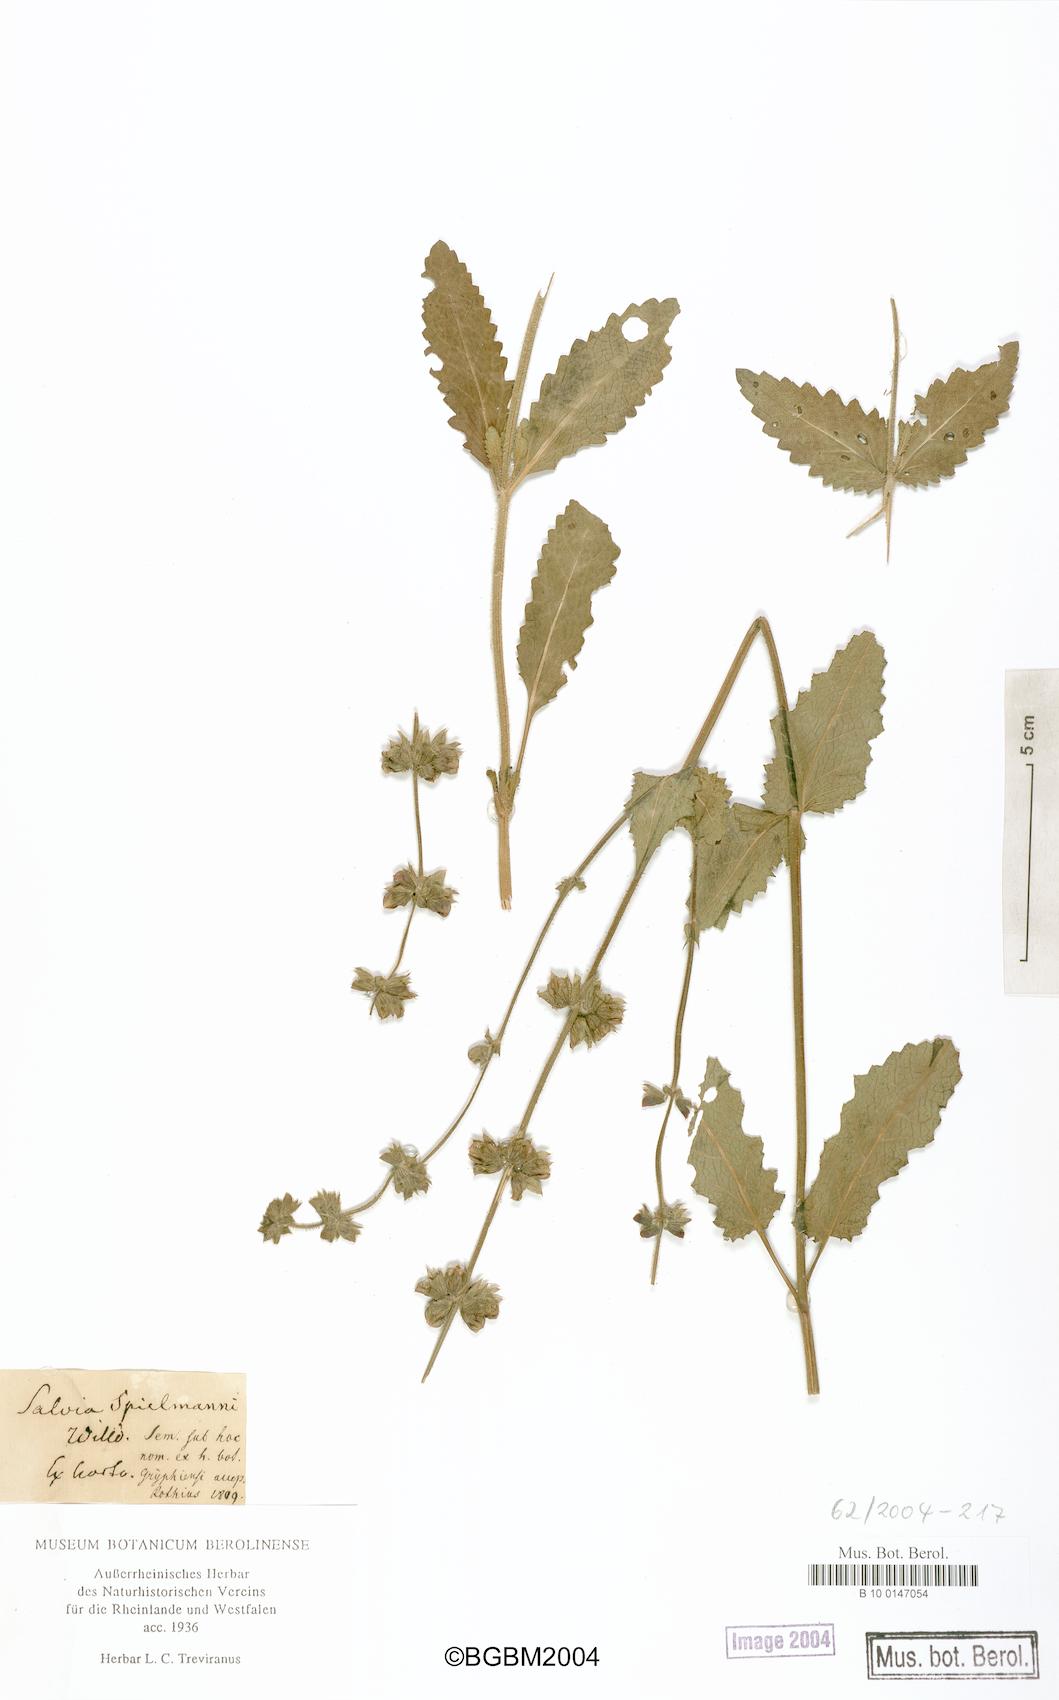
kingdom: Plantae
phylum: Tracheophyta
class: Magnoliopsida
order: Lamiales
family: Lamiaceae
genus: Salvia
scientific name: Salvia
